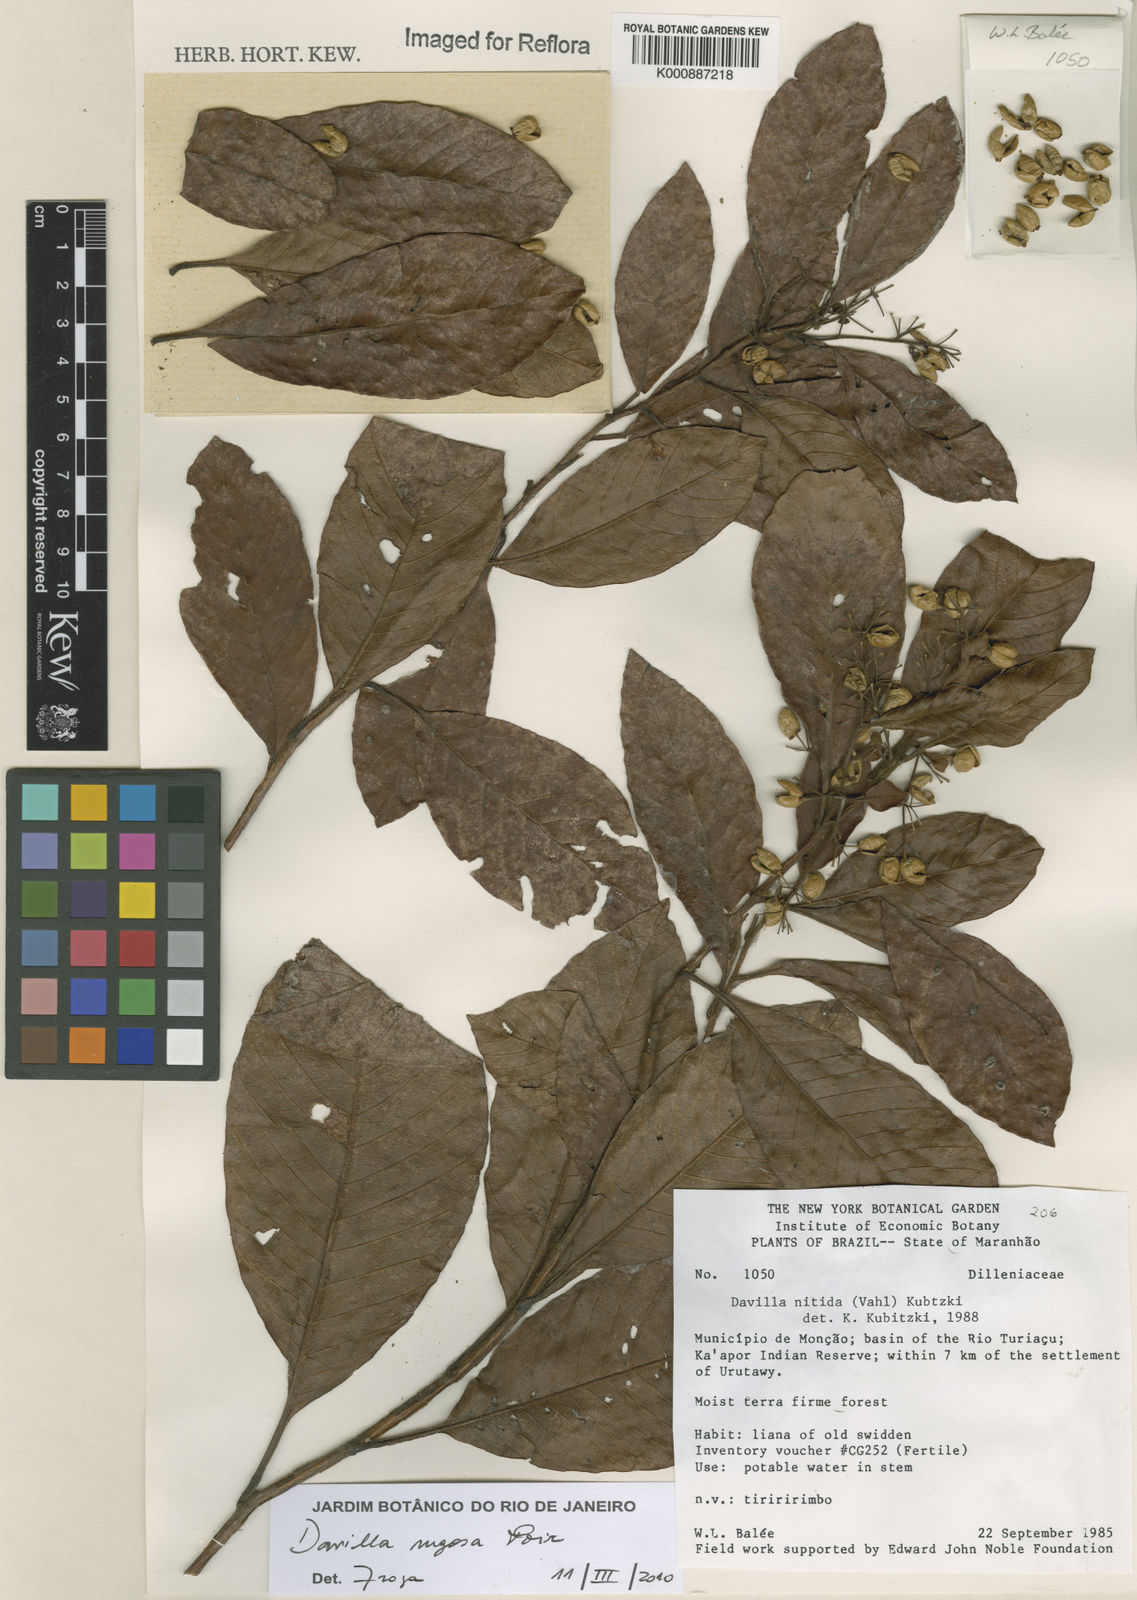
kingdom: Plantae
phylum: Tracheophyta
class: Magnoliopsida
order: Dilleniales
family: Dilleniaceae
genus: Davilla
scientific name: Davilla rugosa
